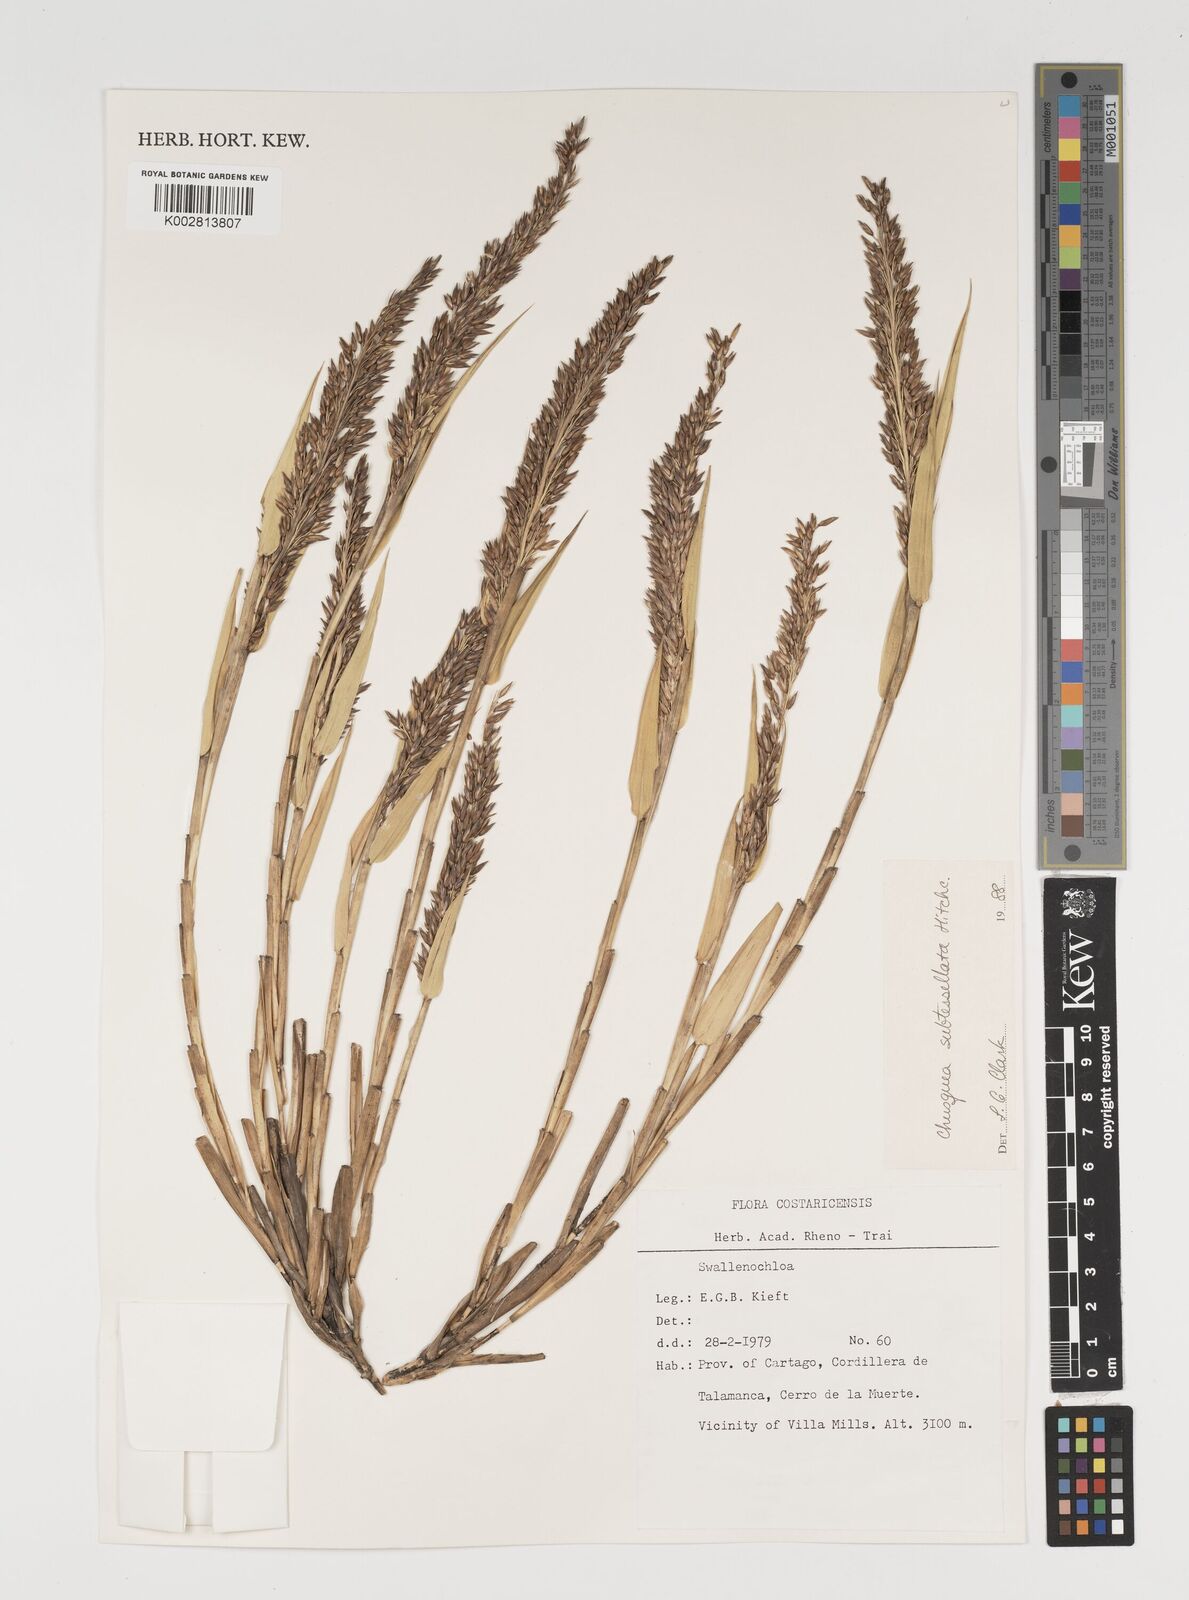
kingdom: Plantae
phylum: Tracheophyta
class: Liliopsida
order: Poales
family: Poaceae
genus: Chusquea
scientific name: Chusquea subtessellata
